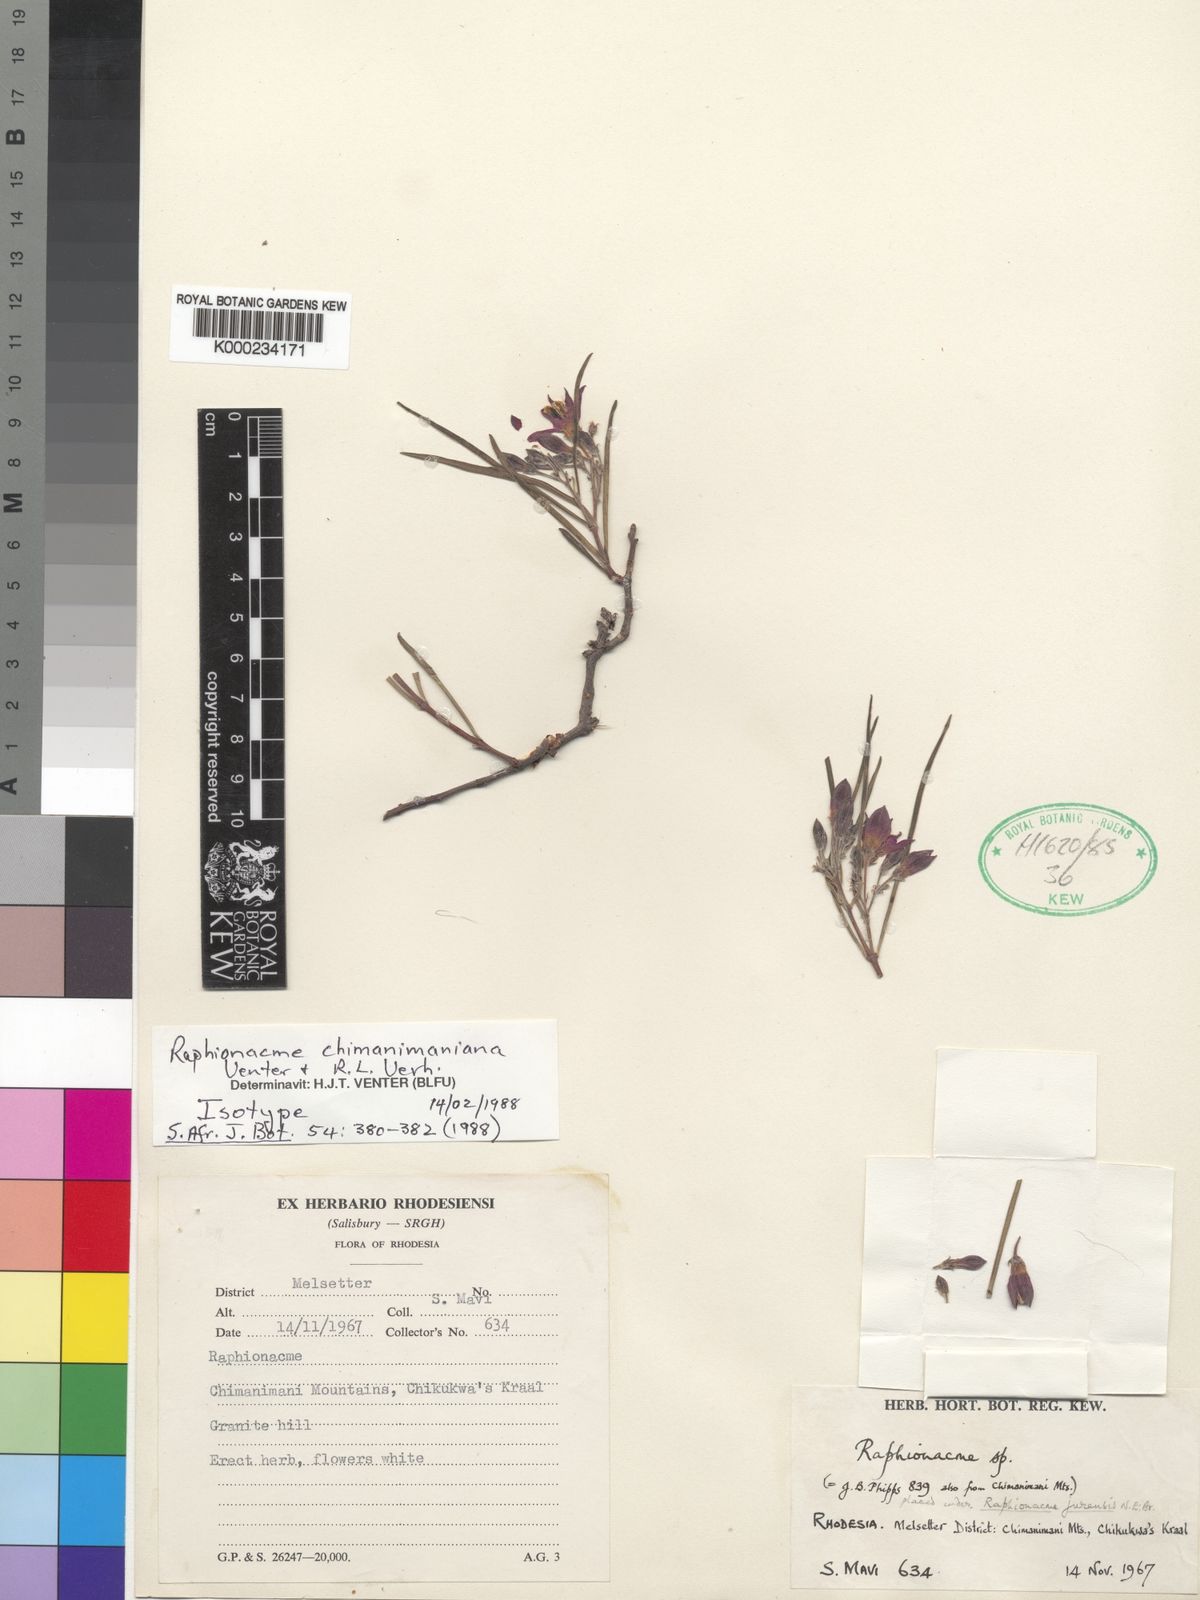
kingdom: Plantae
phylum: Tracheophyta
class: Magnoliopsida
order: Gentianales
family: Apocynaceae
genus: Raphionacme
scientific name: Raphionacme splendens
